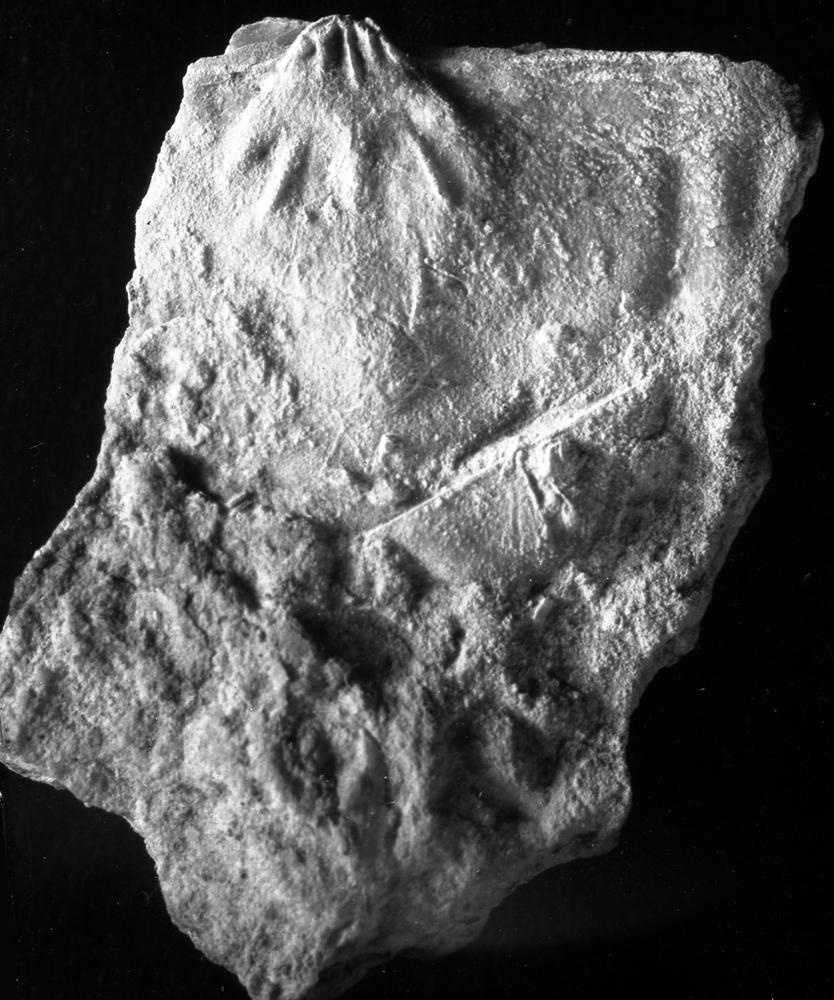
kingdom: Animalia
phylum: Brachiopoda
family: Strophomenidae
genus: Leptaena
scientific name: Leptaena cryptoides
